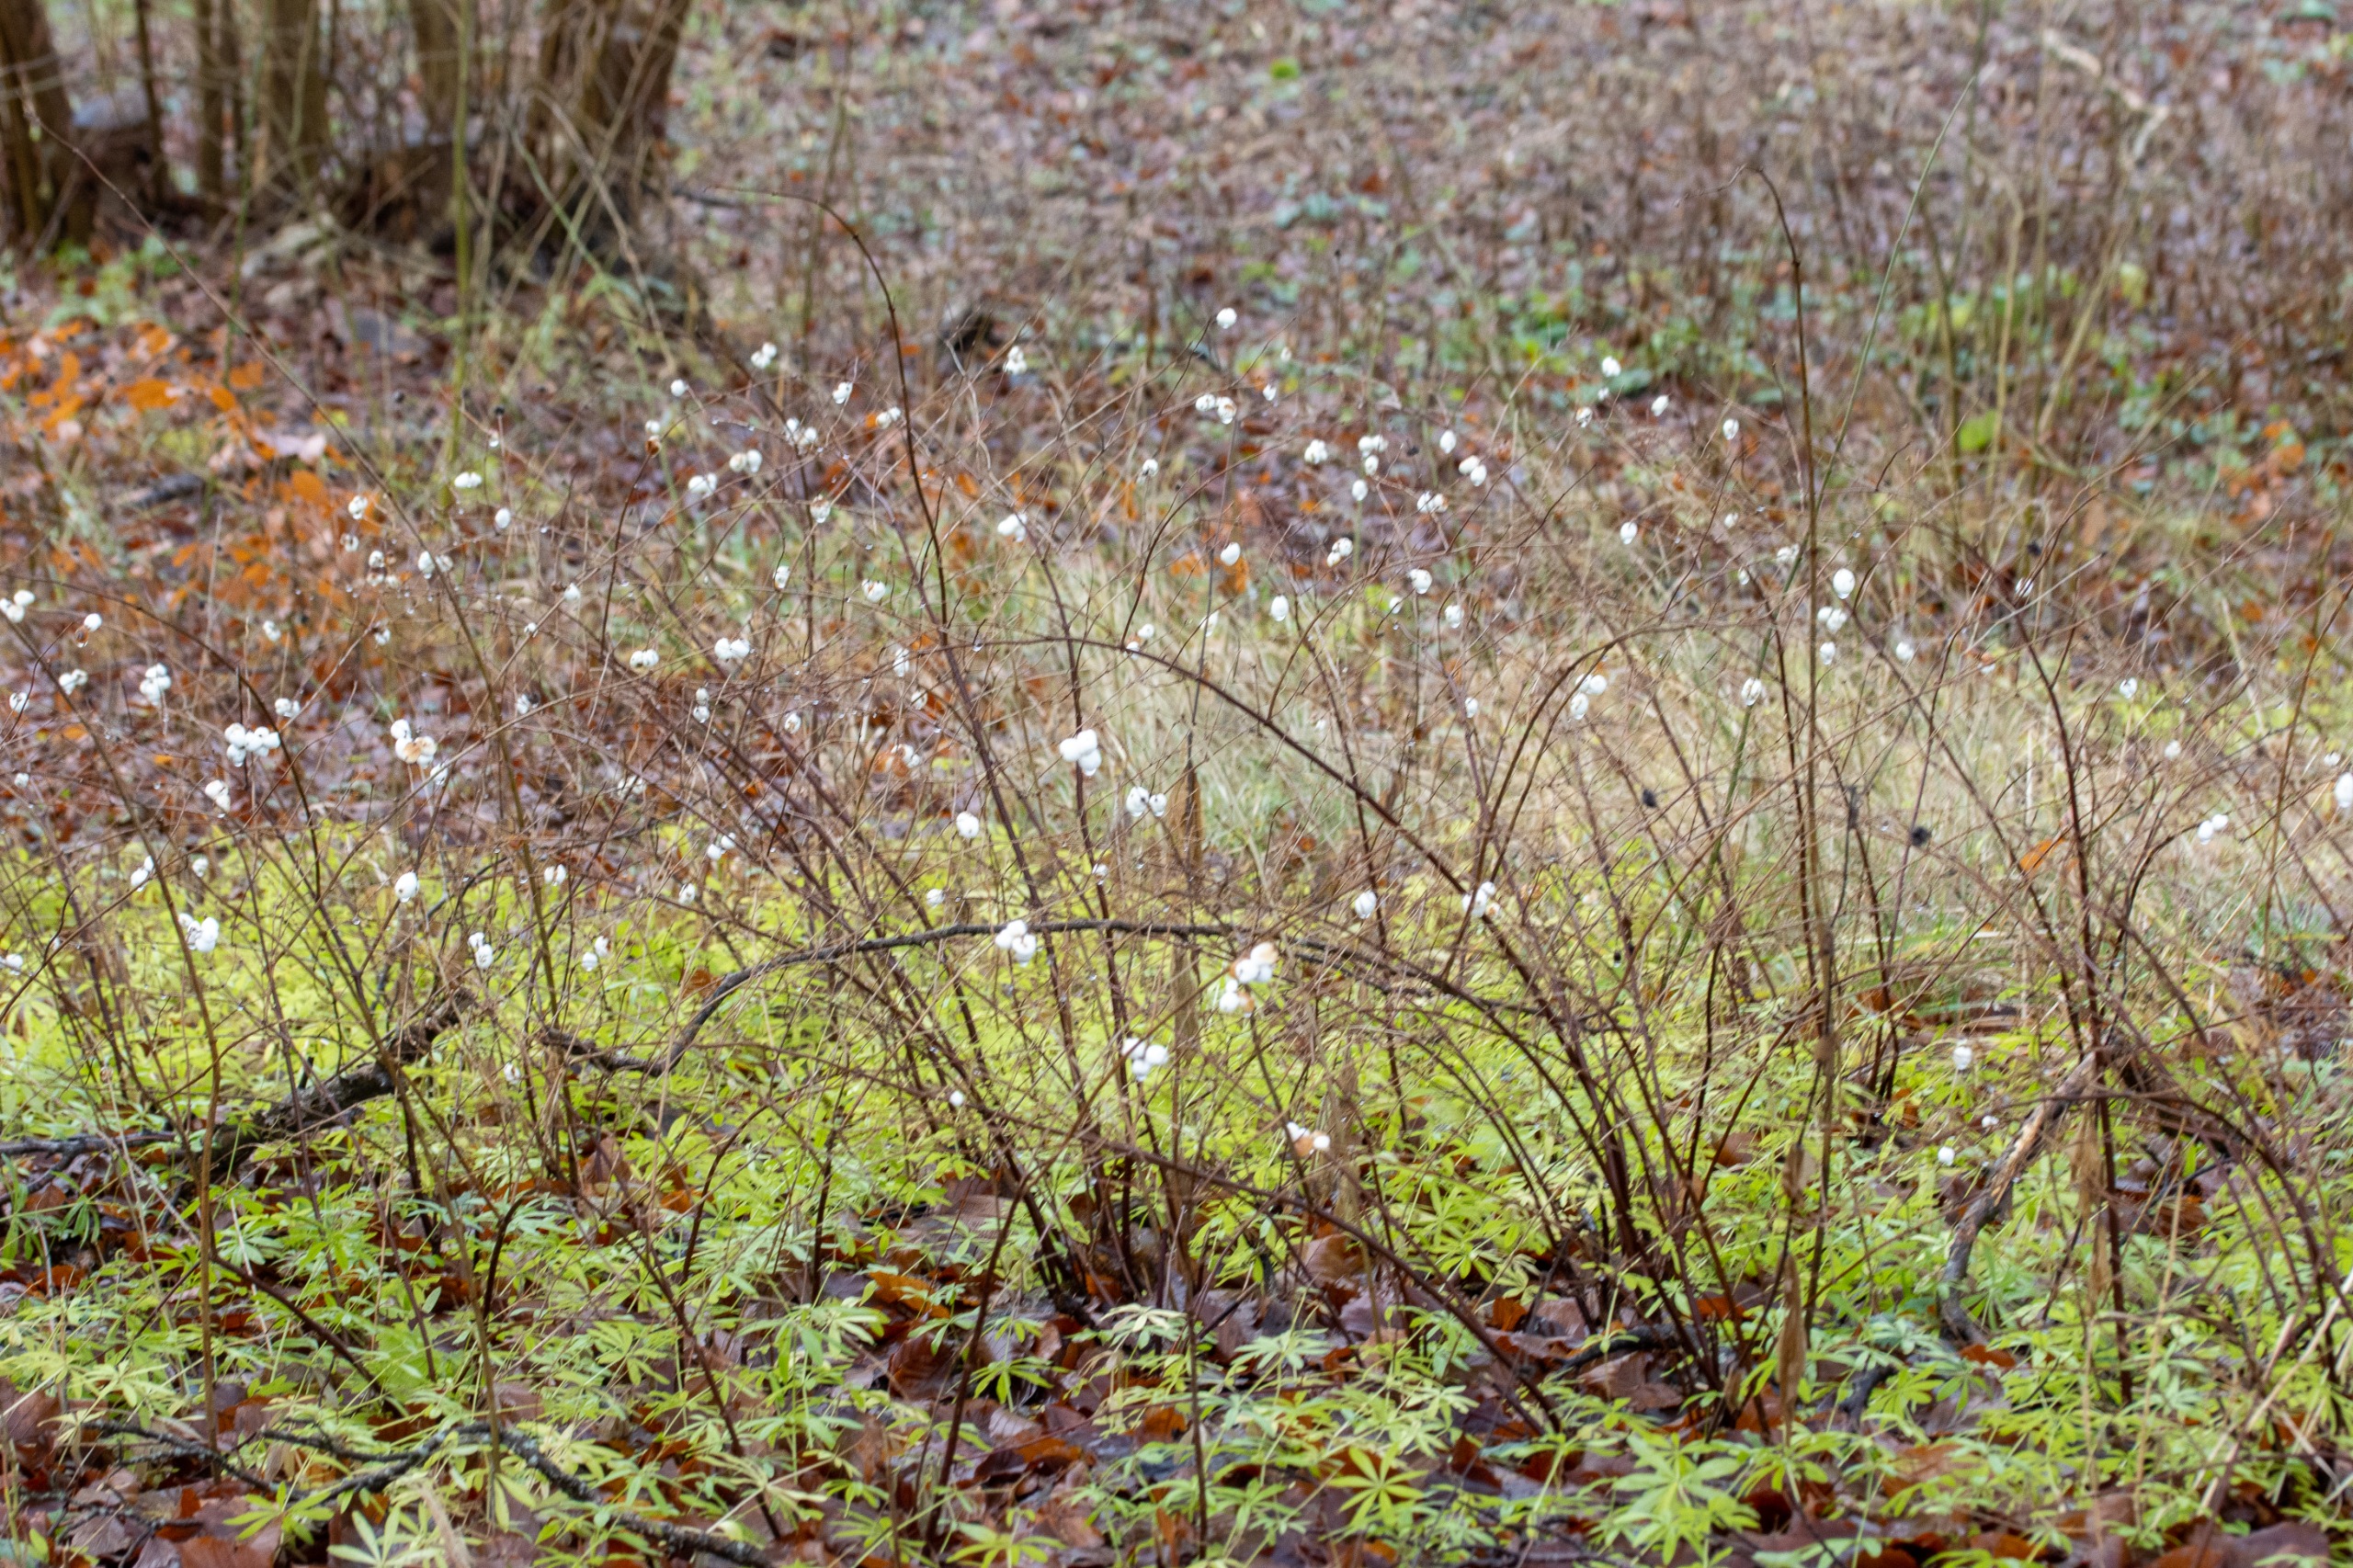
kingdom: Plantae
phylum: Tracheophyta
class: Magnoliopsida
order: Dipsacales
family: Caprifoliaceae
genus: Symphoricarpos
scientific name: Symphoricarpos albus
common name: Almindelig snebær
